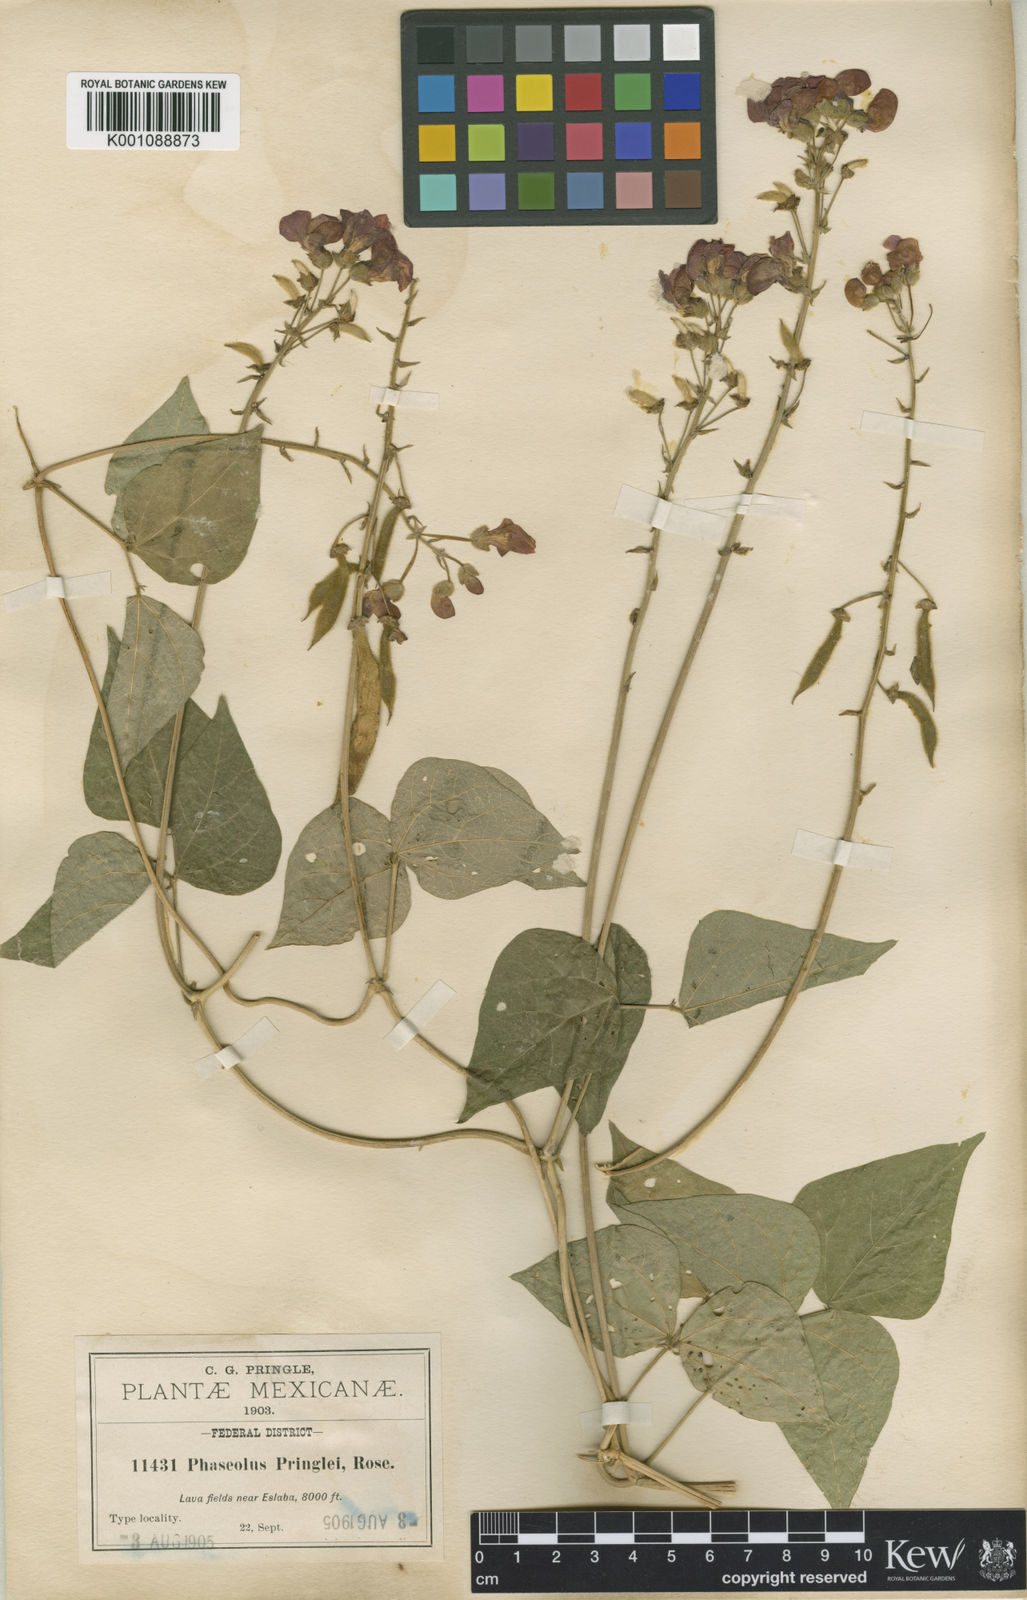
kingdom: Plantae
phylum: Tracheophyta
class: Magnoliopsida
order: Fabales
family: Fabaceae
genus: Phaseolus
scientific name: Phaseolus coccineus
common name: Runner bean
